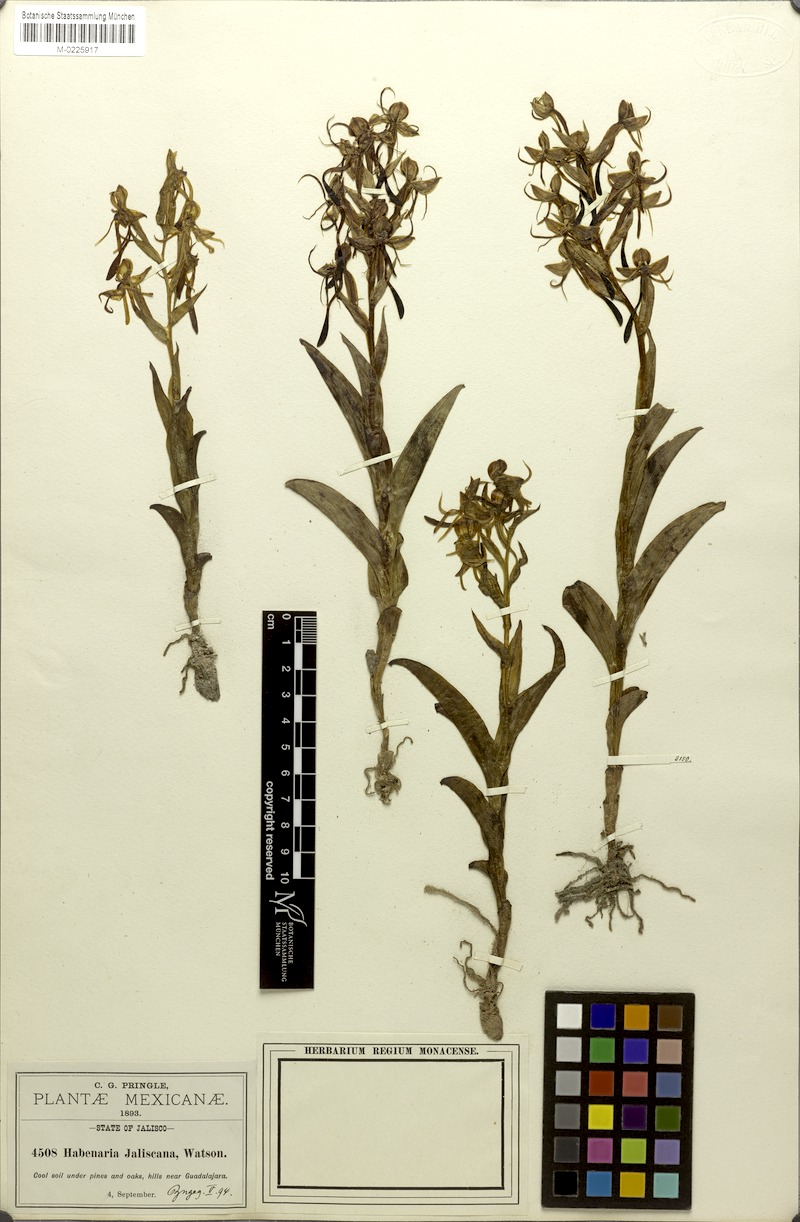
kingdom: Plantae
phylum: Tracheophyta
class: Liliopsida
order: Asparagales
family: Orchidaceae
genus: Habenaria
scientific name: Habenaria jaliscana
